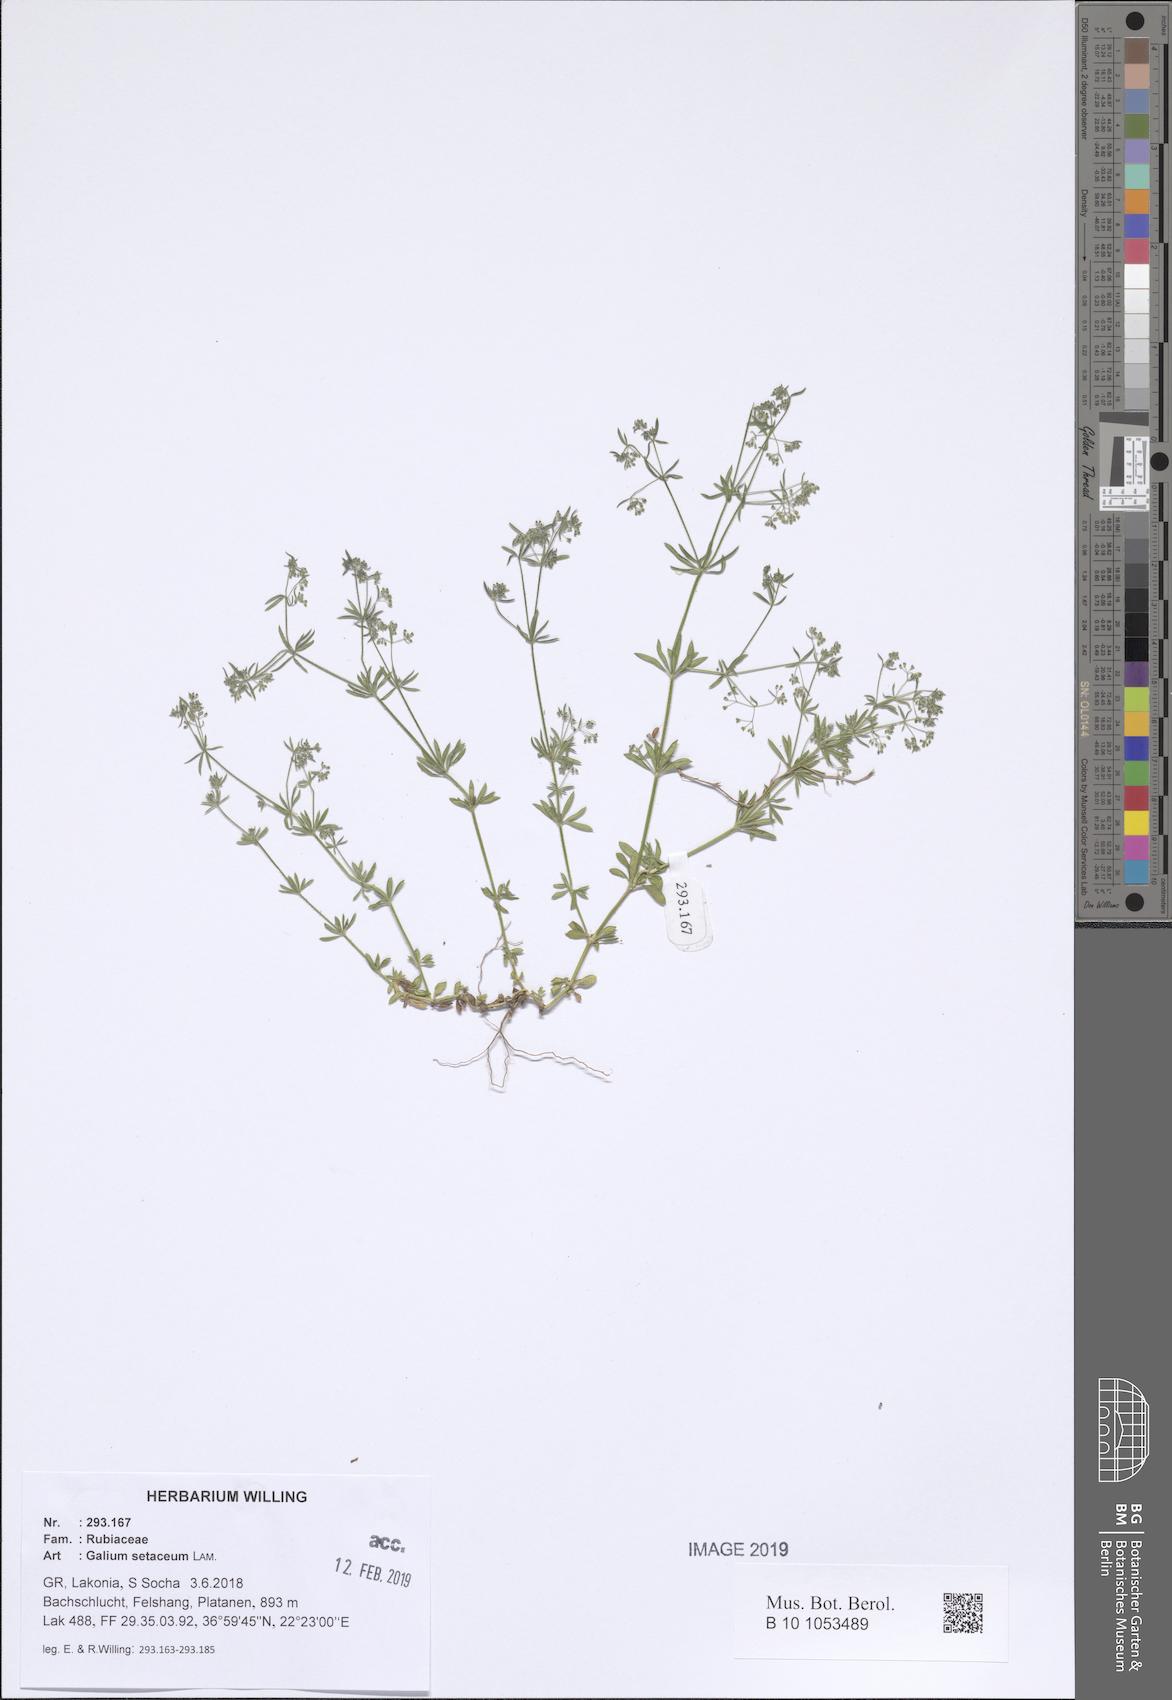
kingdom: Plantae
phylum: Tracheophyta
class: Magnoliopsida
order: Gentianales
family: Rubiaceae
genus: Galium
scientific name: Galium setaceum
